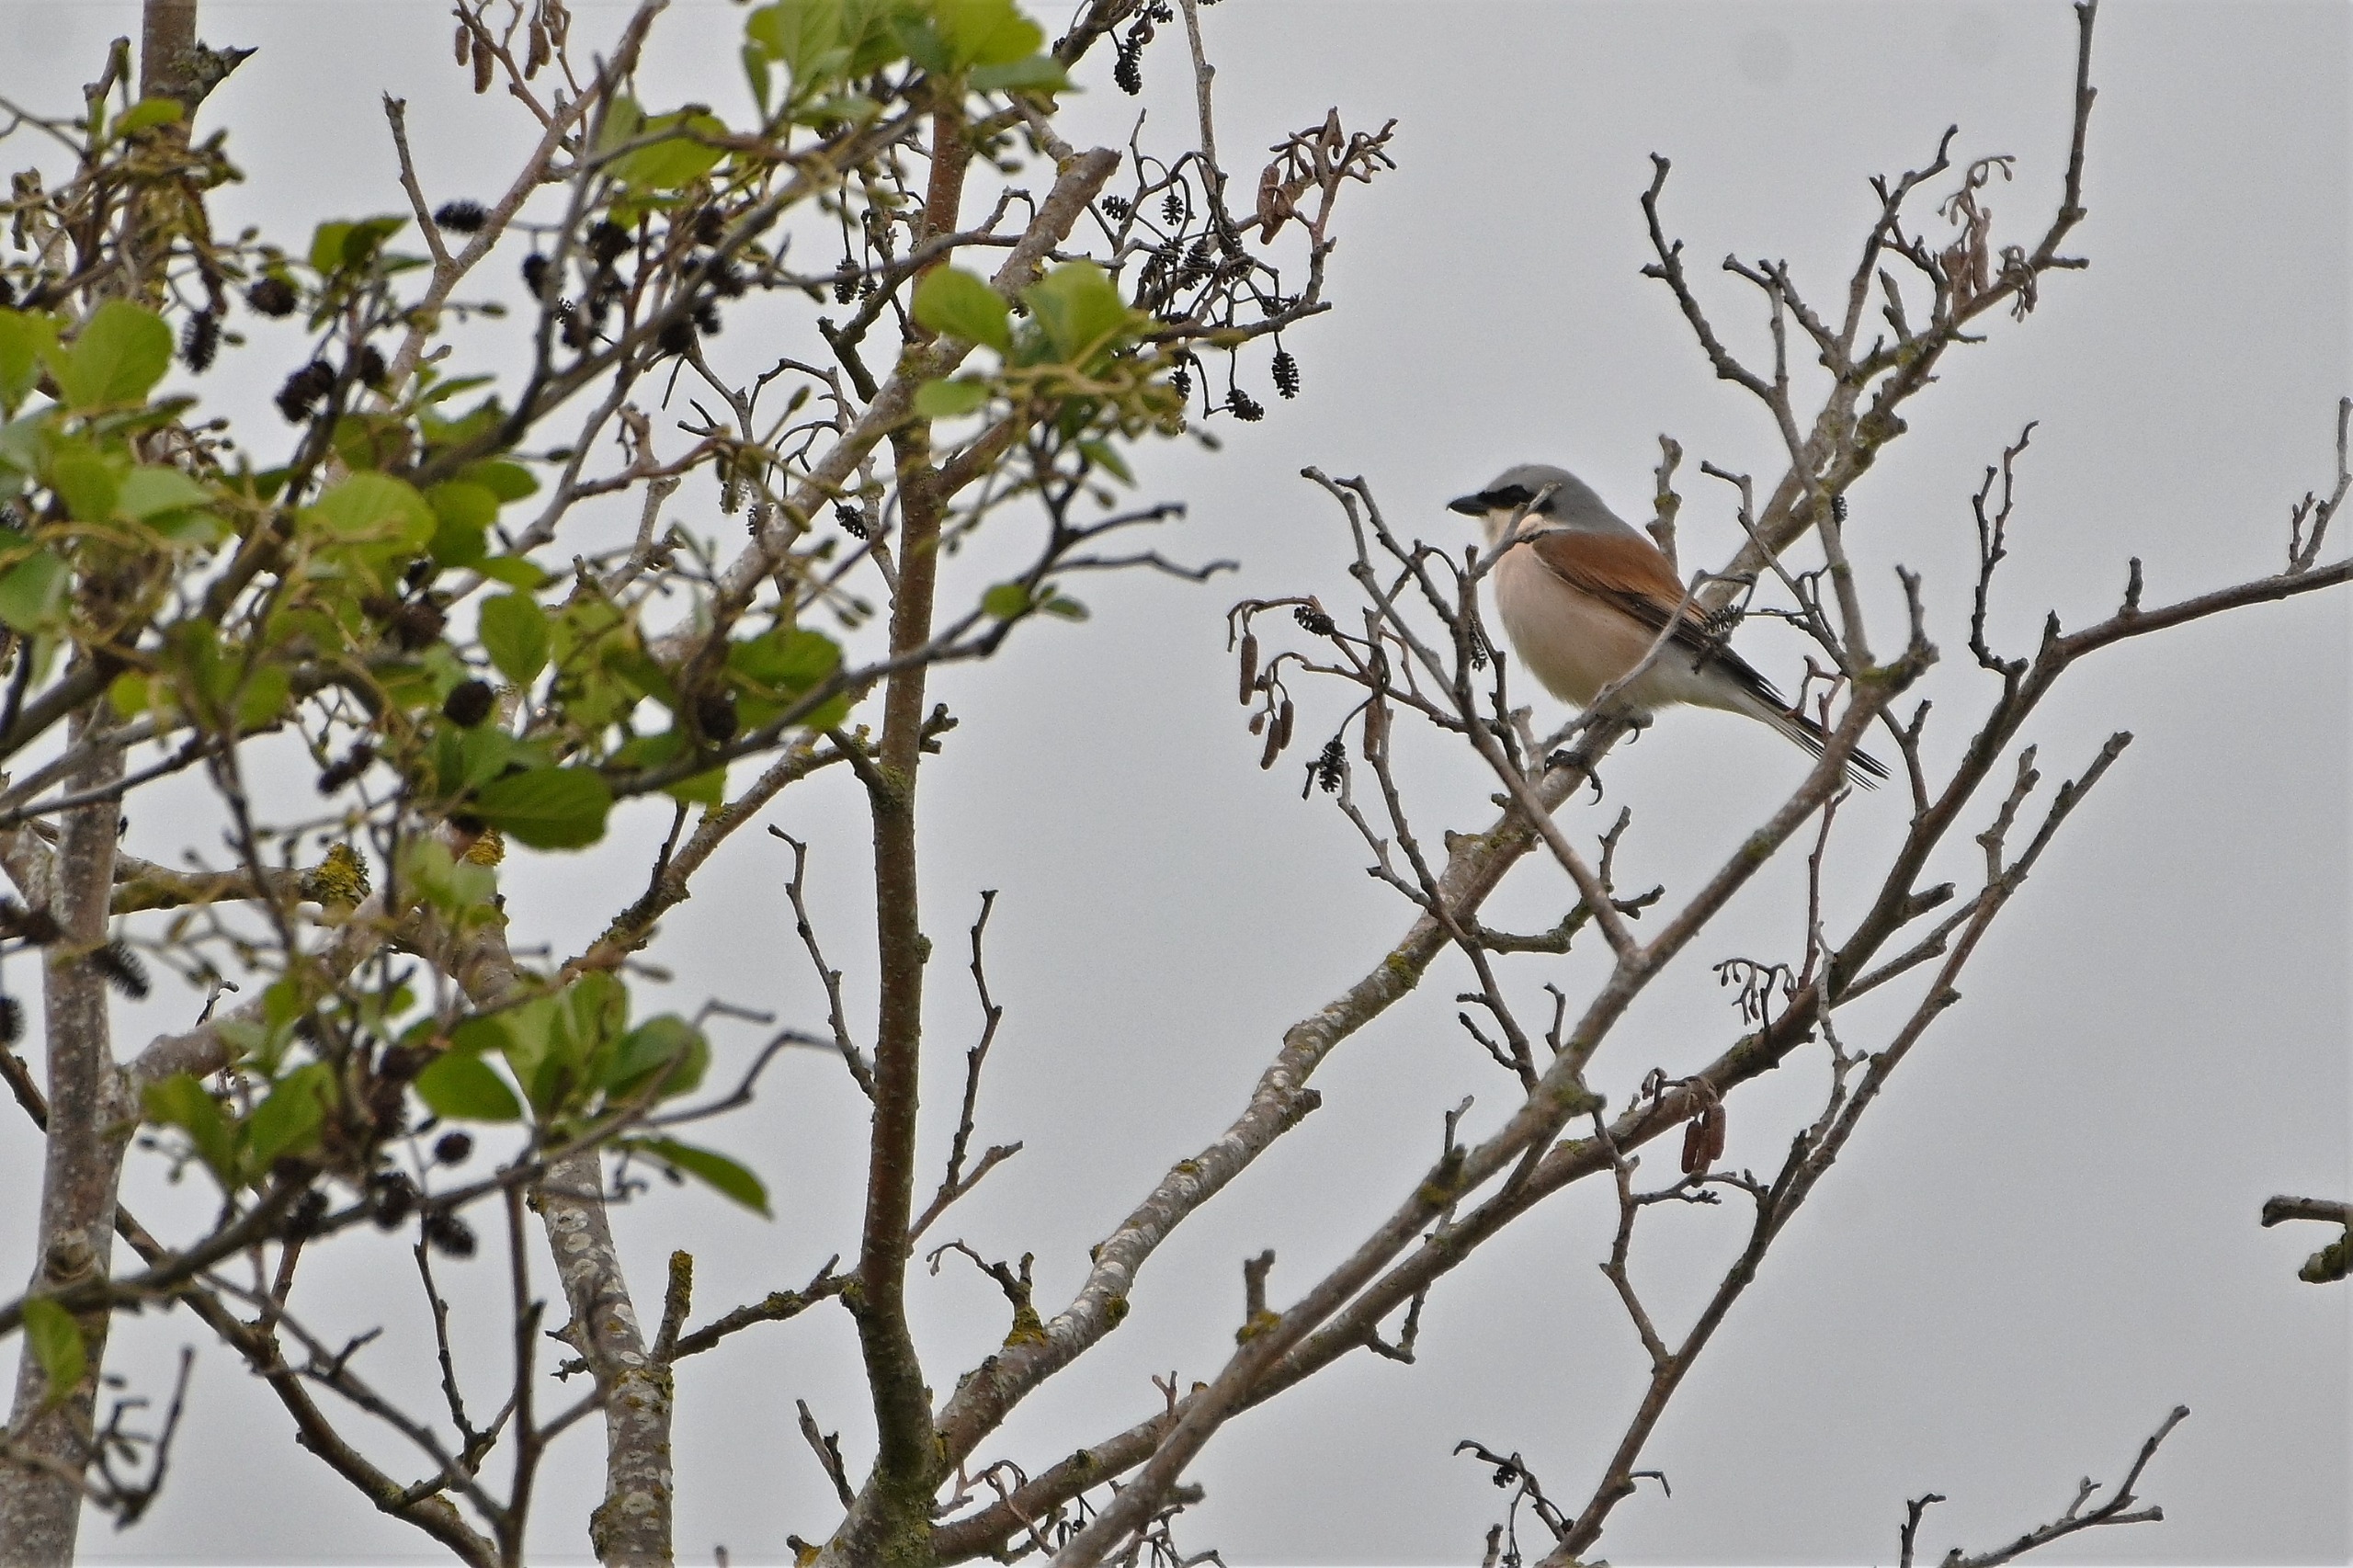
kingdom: Animalia
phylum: Chordata
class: Aves
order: Passeriformes
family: Laniidae
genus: Lanius
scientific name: Lanius collurio
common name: Rødrygget tornskade
